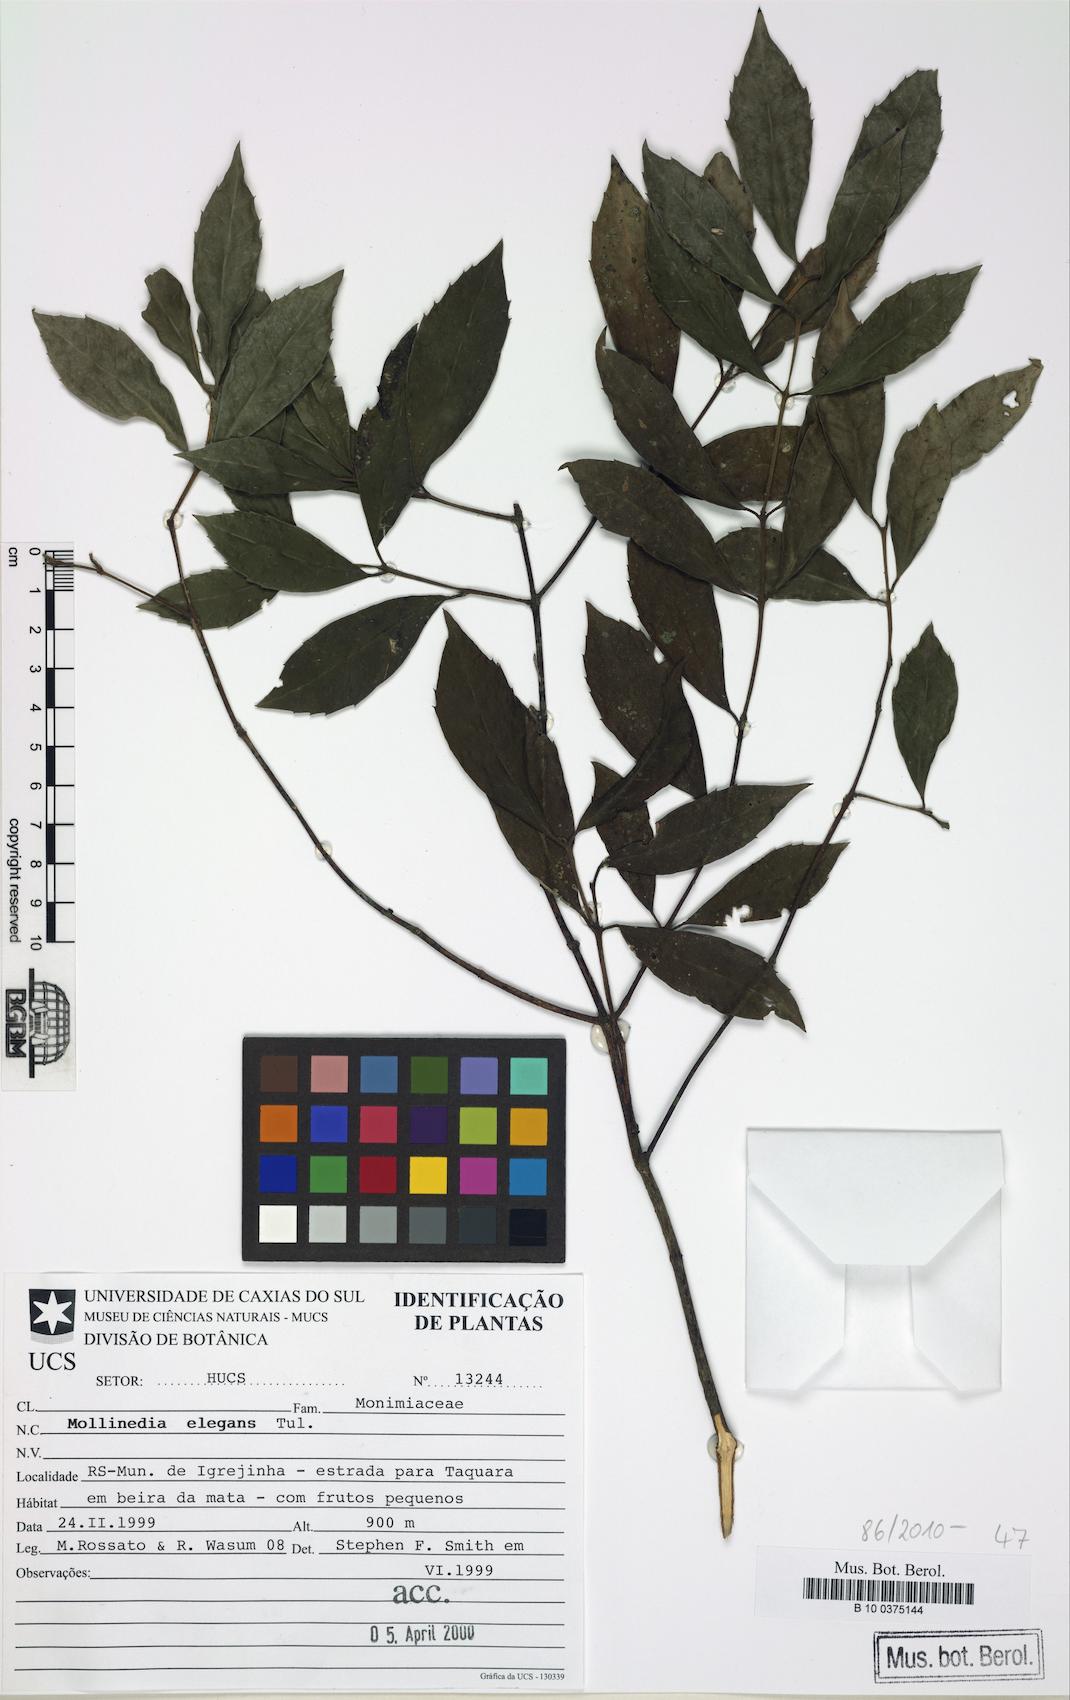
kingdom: Plantae
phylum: Tracheophyta
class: Magnoliopsida
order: Laurales
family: Monimiaceae
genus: Mollinedia
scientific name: Mollinedia elegans
